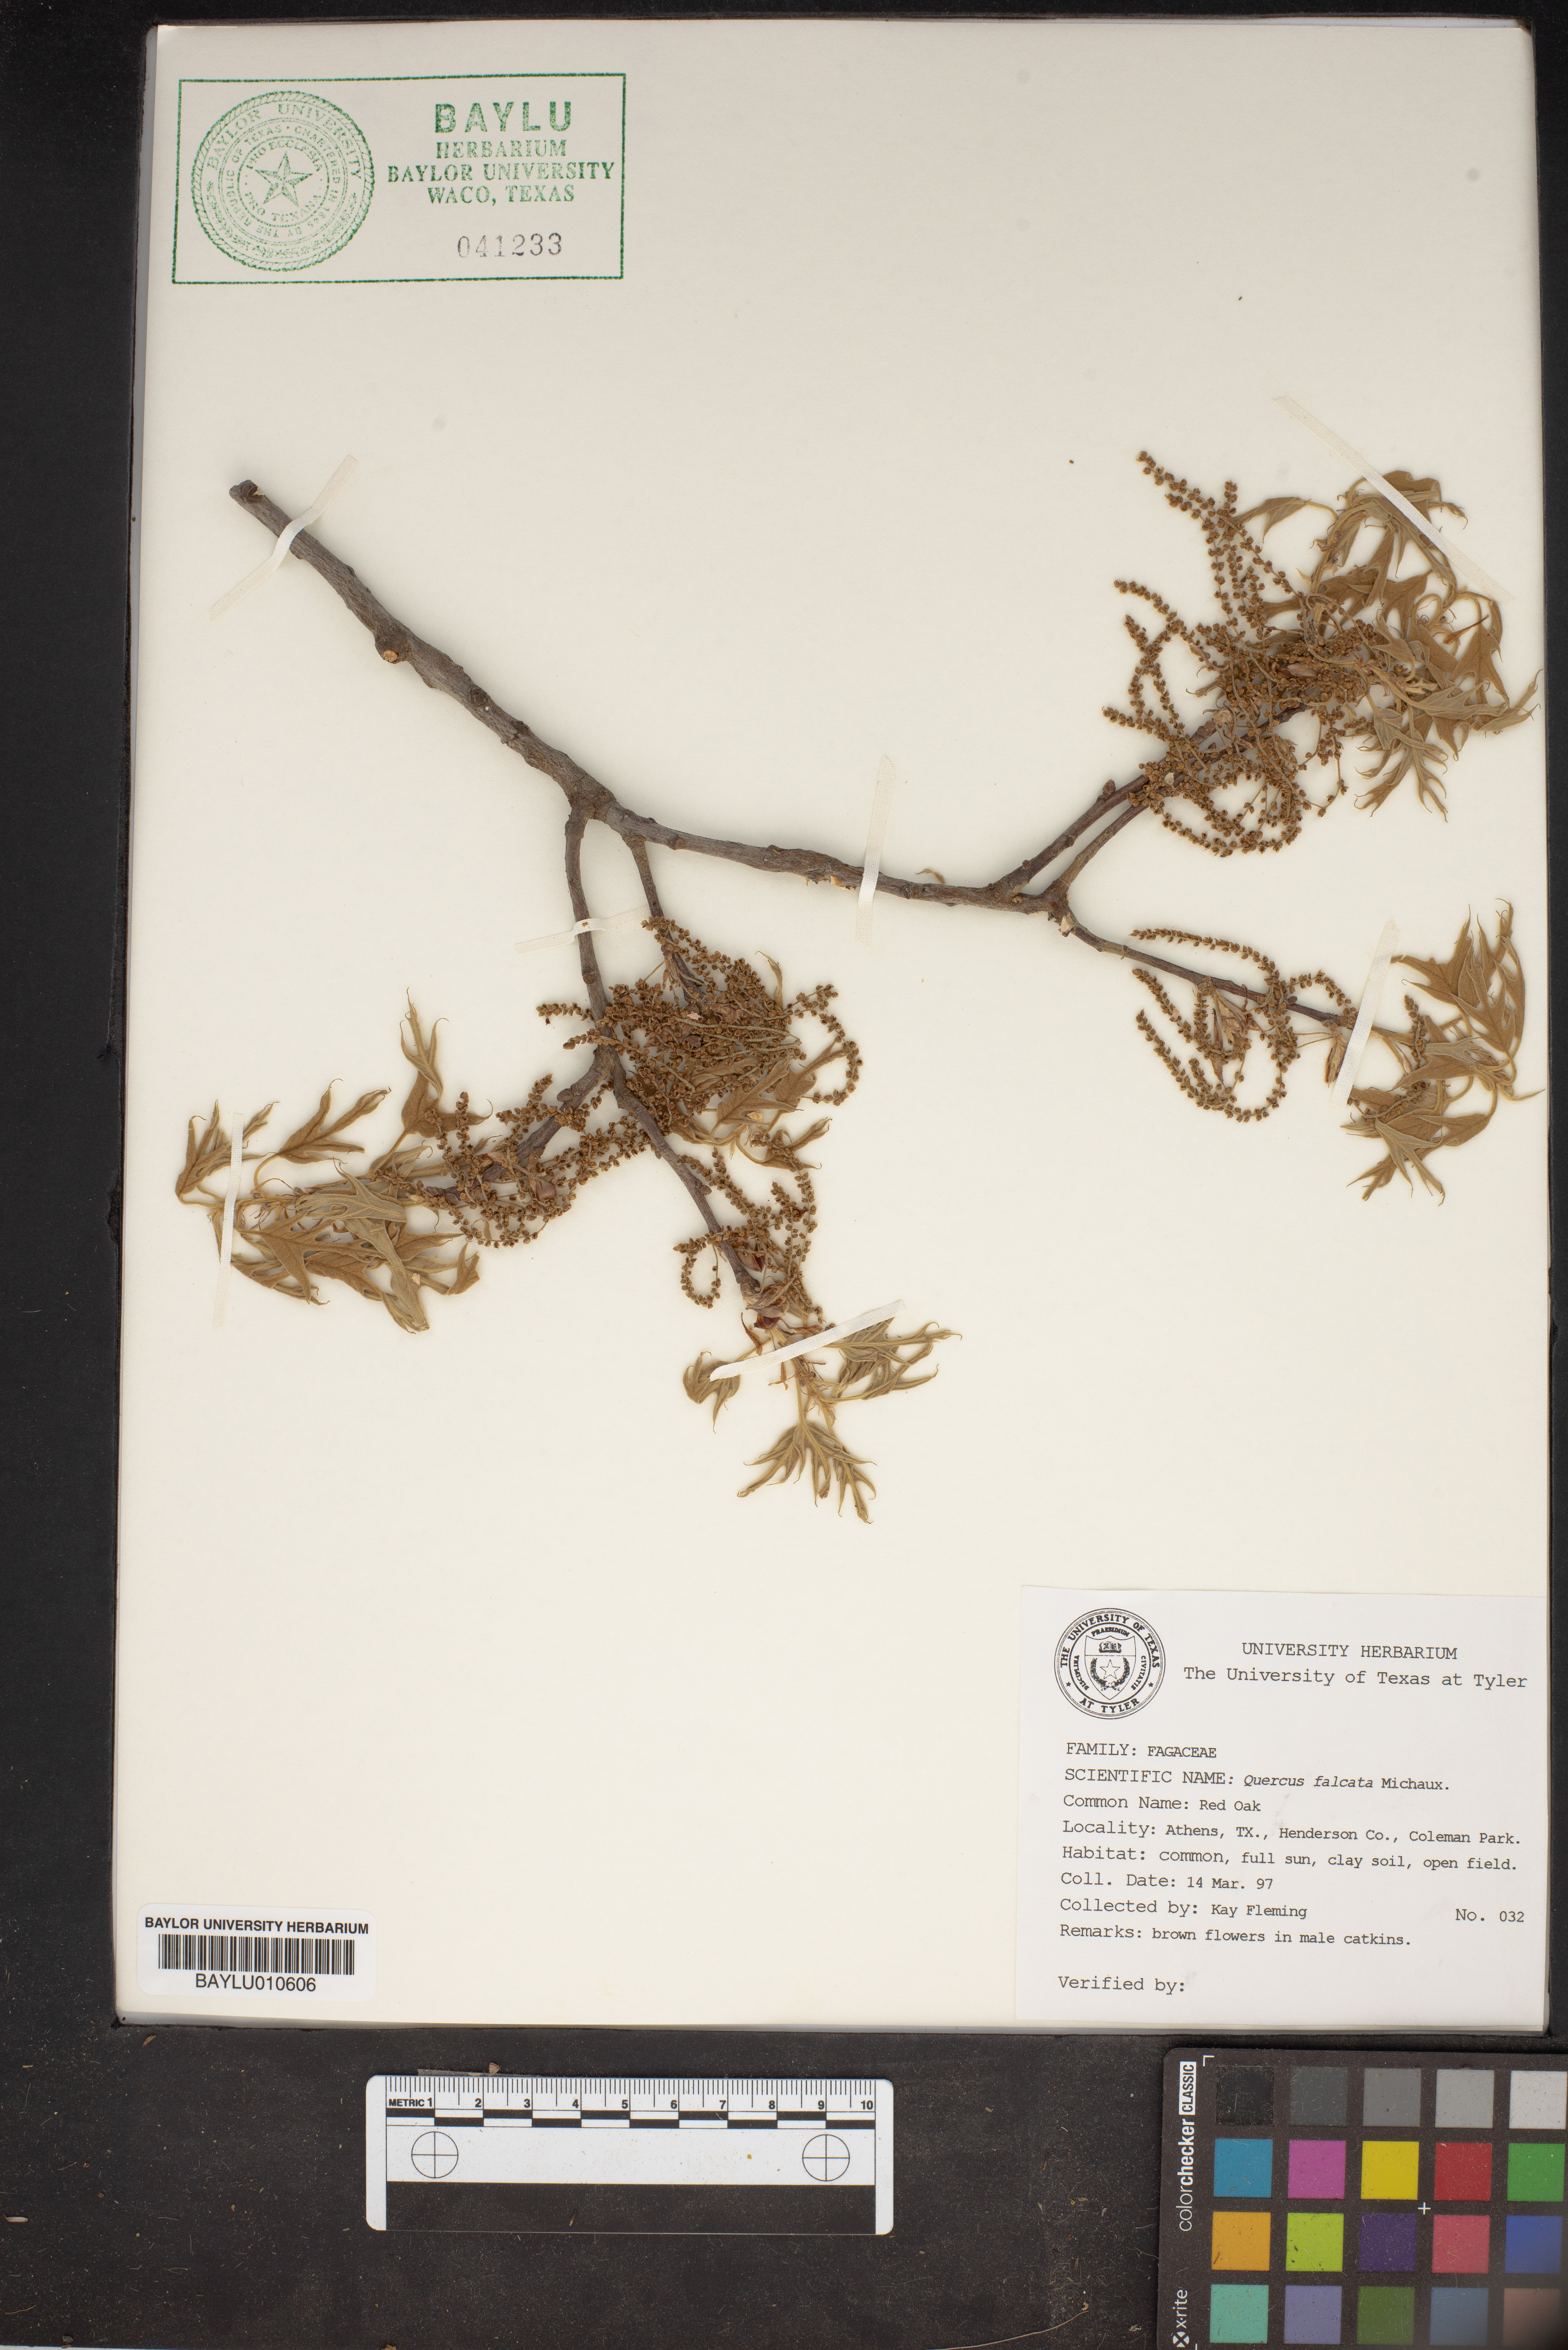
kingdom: Plantae
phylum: Tracheophyta
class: Magnoliopsida
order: Fagales
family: Fagaceae
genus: Quercus
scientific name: Quercus falcata
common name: Southern red oak
